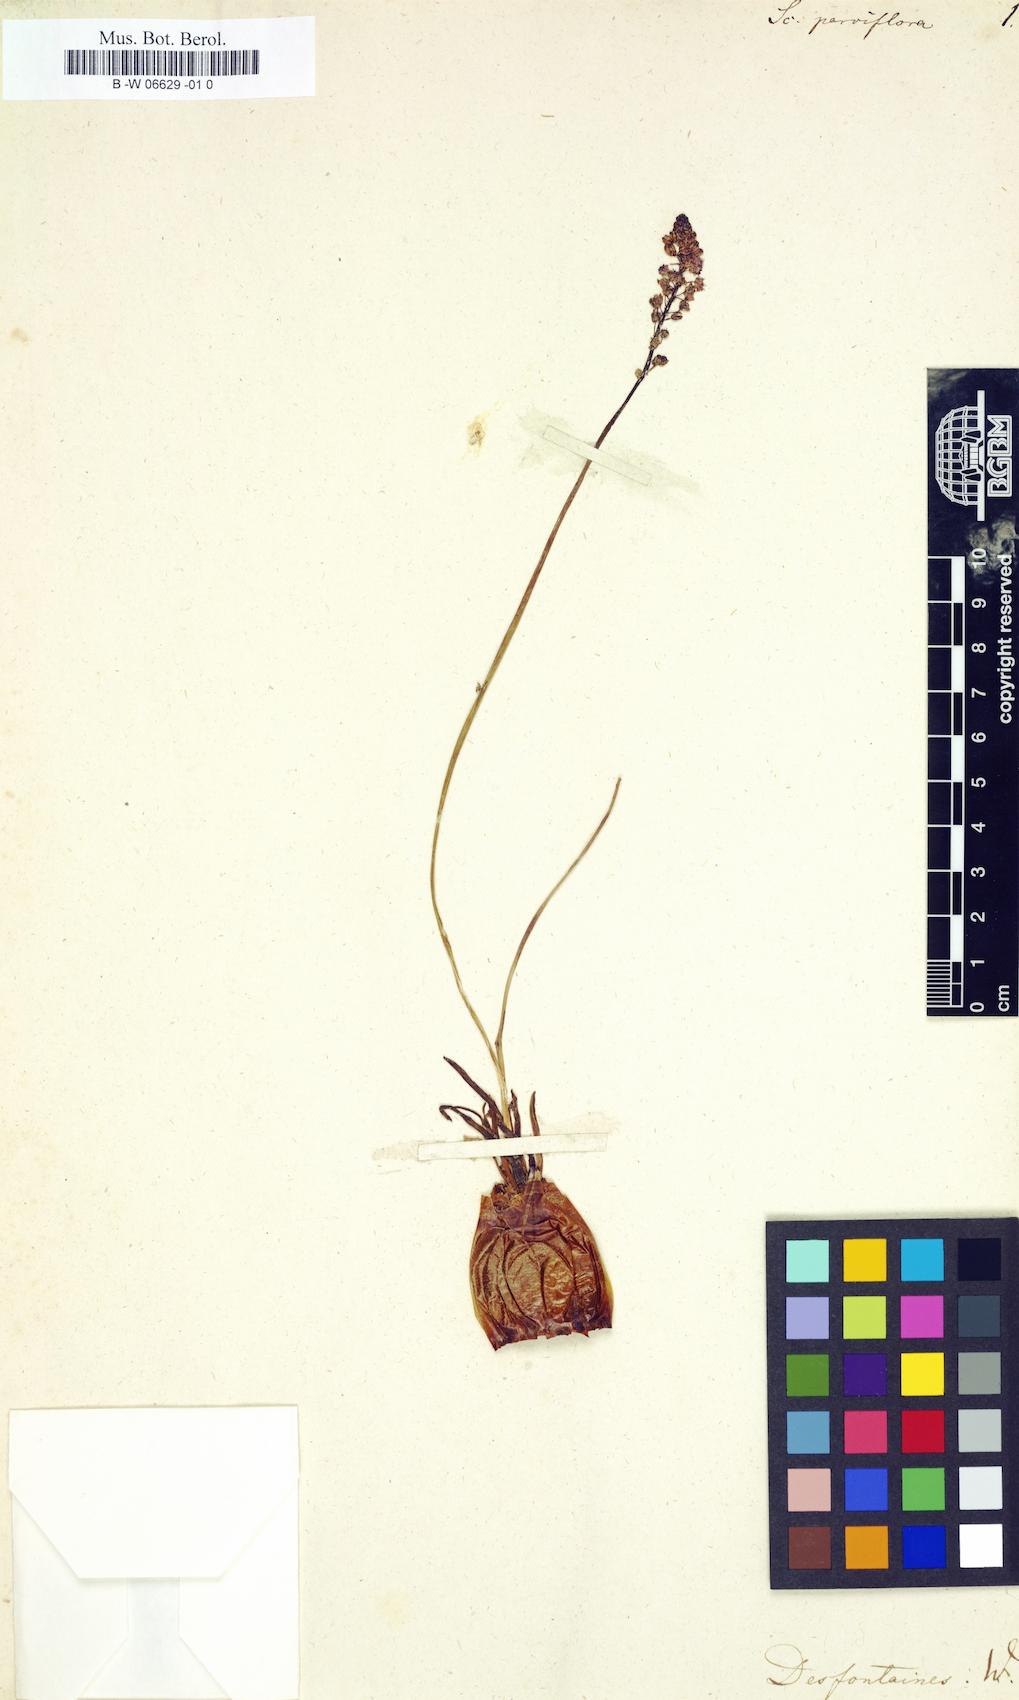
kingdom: Plantae
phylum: Tracheophyta
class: Liliopsida
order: Asparagales
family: Asparagaceae
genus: Scilla
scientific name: Scilla hyacinthoides
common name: Scilla
